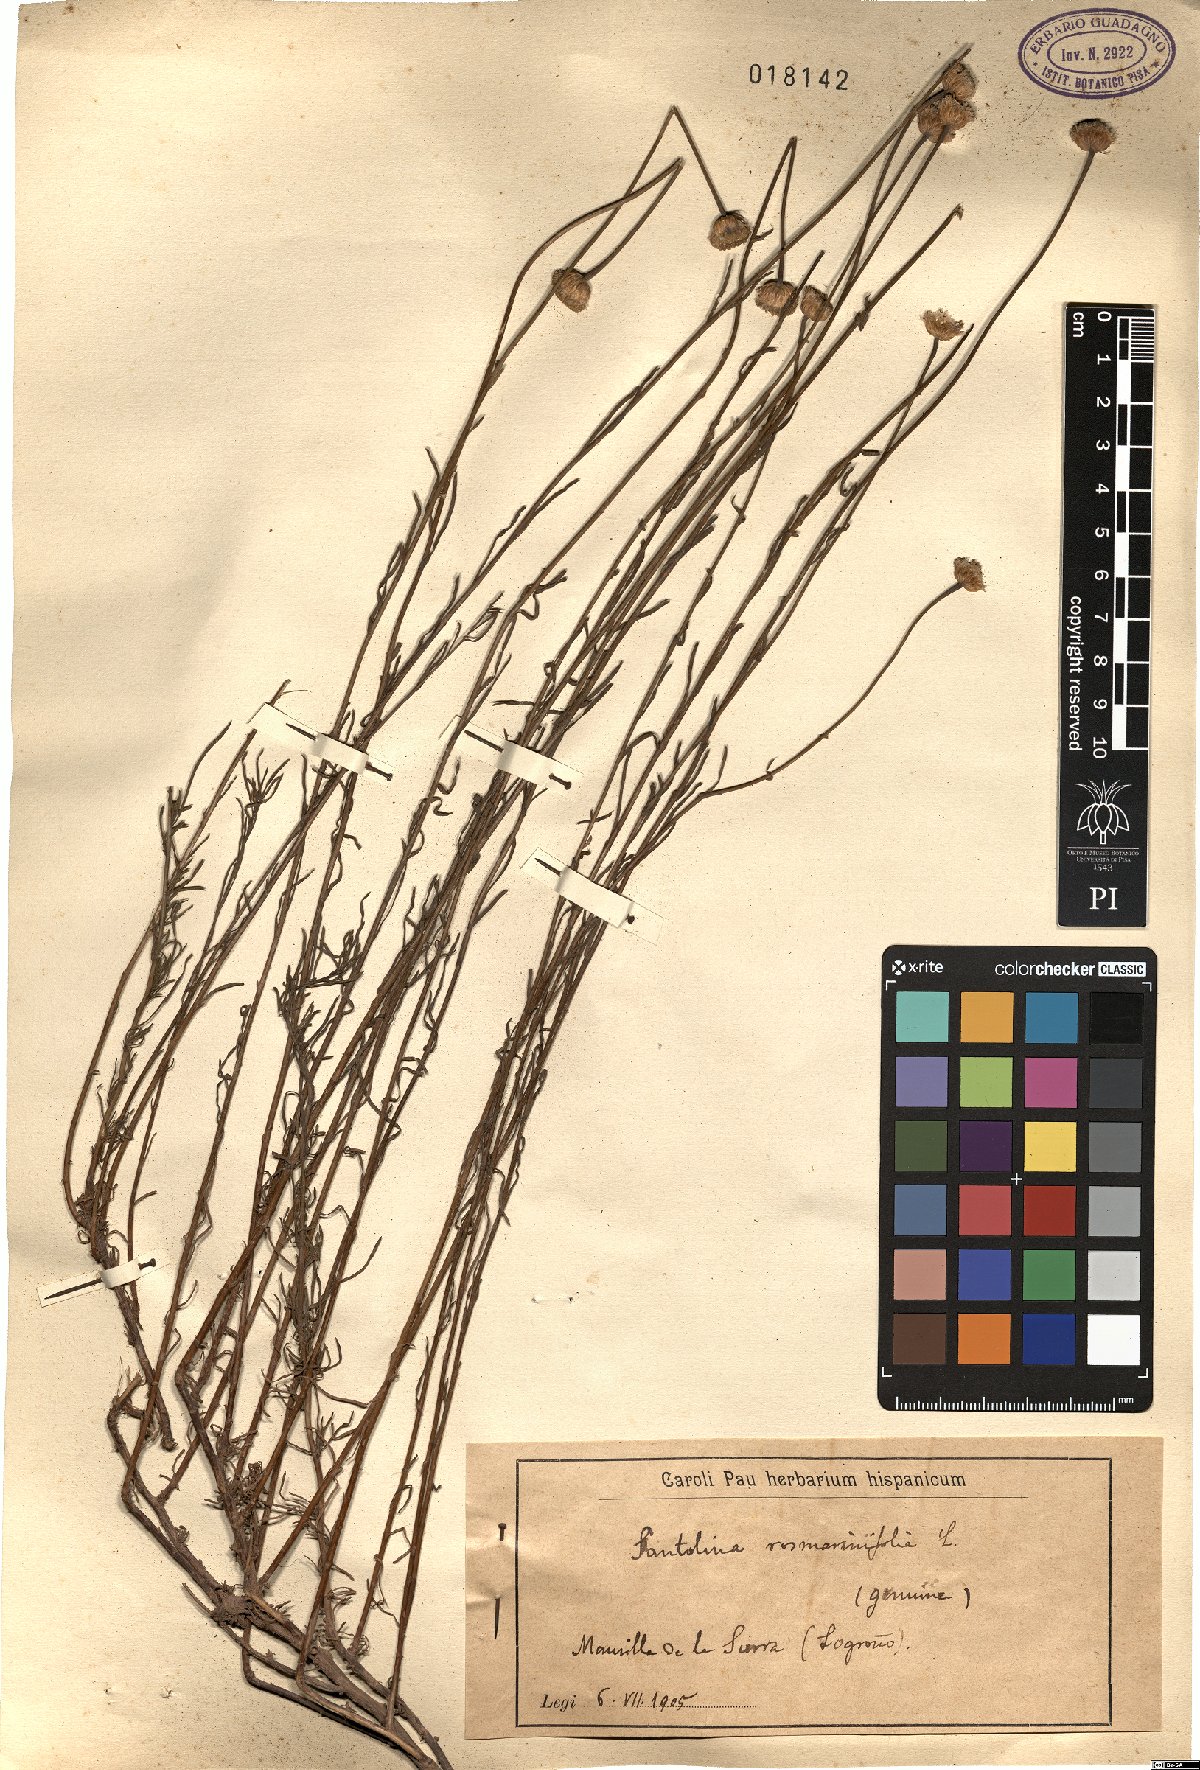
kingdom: Plantae
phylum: Tracheophyta
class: Magnoliopsida
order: Asterales
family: Asteraceae
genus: Santolina
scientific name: Santolina rosmarinifolia
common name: Holy-flax
